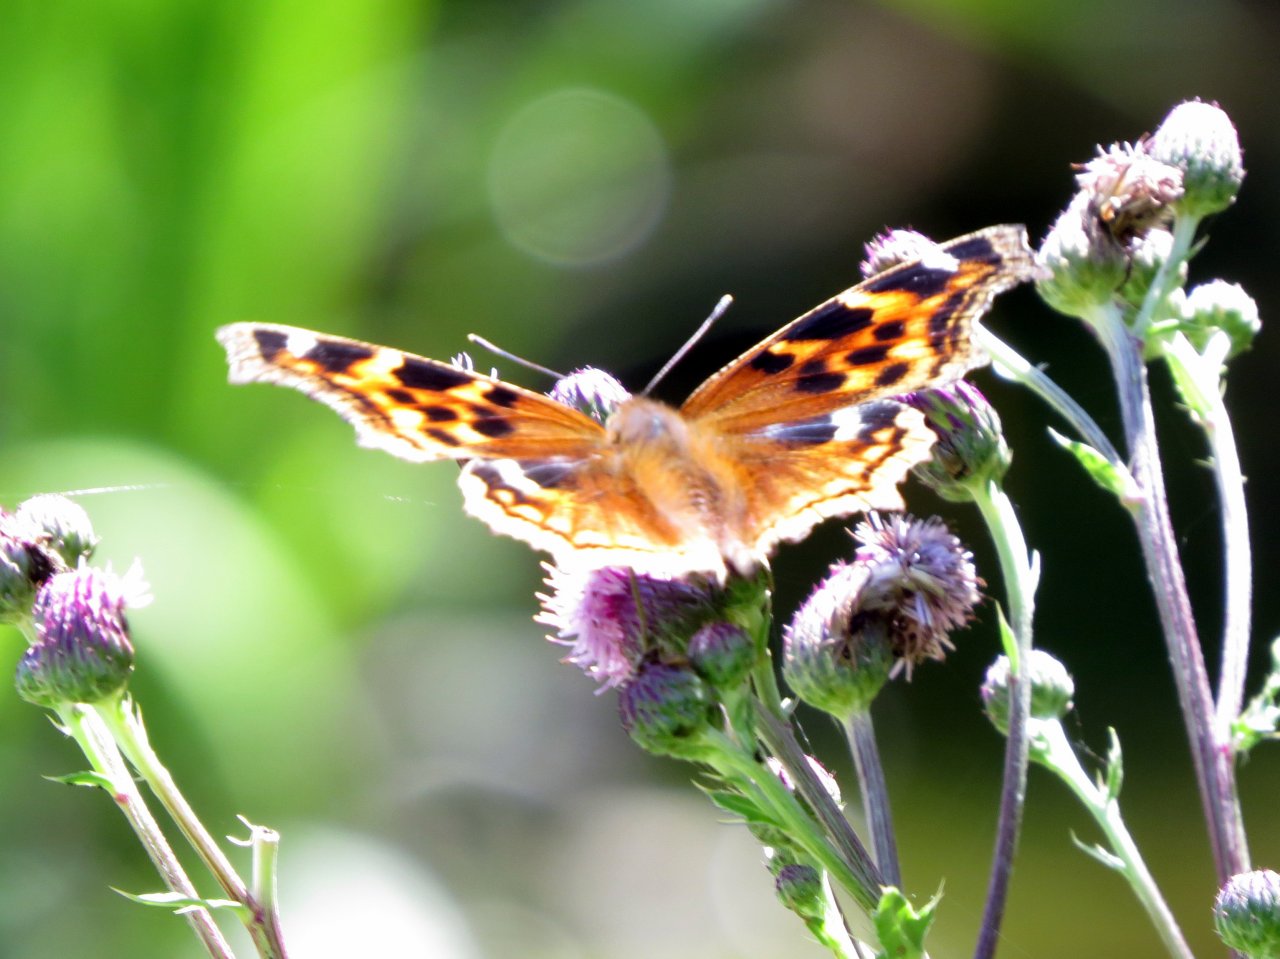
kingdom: Animalia
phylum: Arthropoda
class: Insecta
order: Lepidoptera
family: Nymphalidae
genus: Polygonia
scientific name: Polygonia vaualbum
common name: Compton Tortoiseshell
